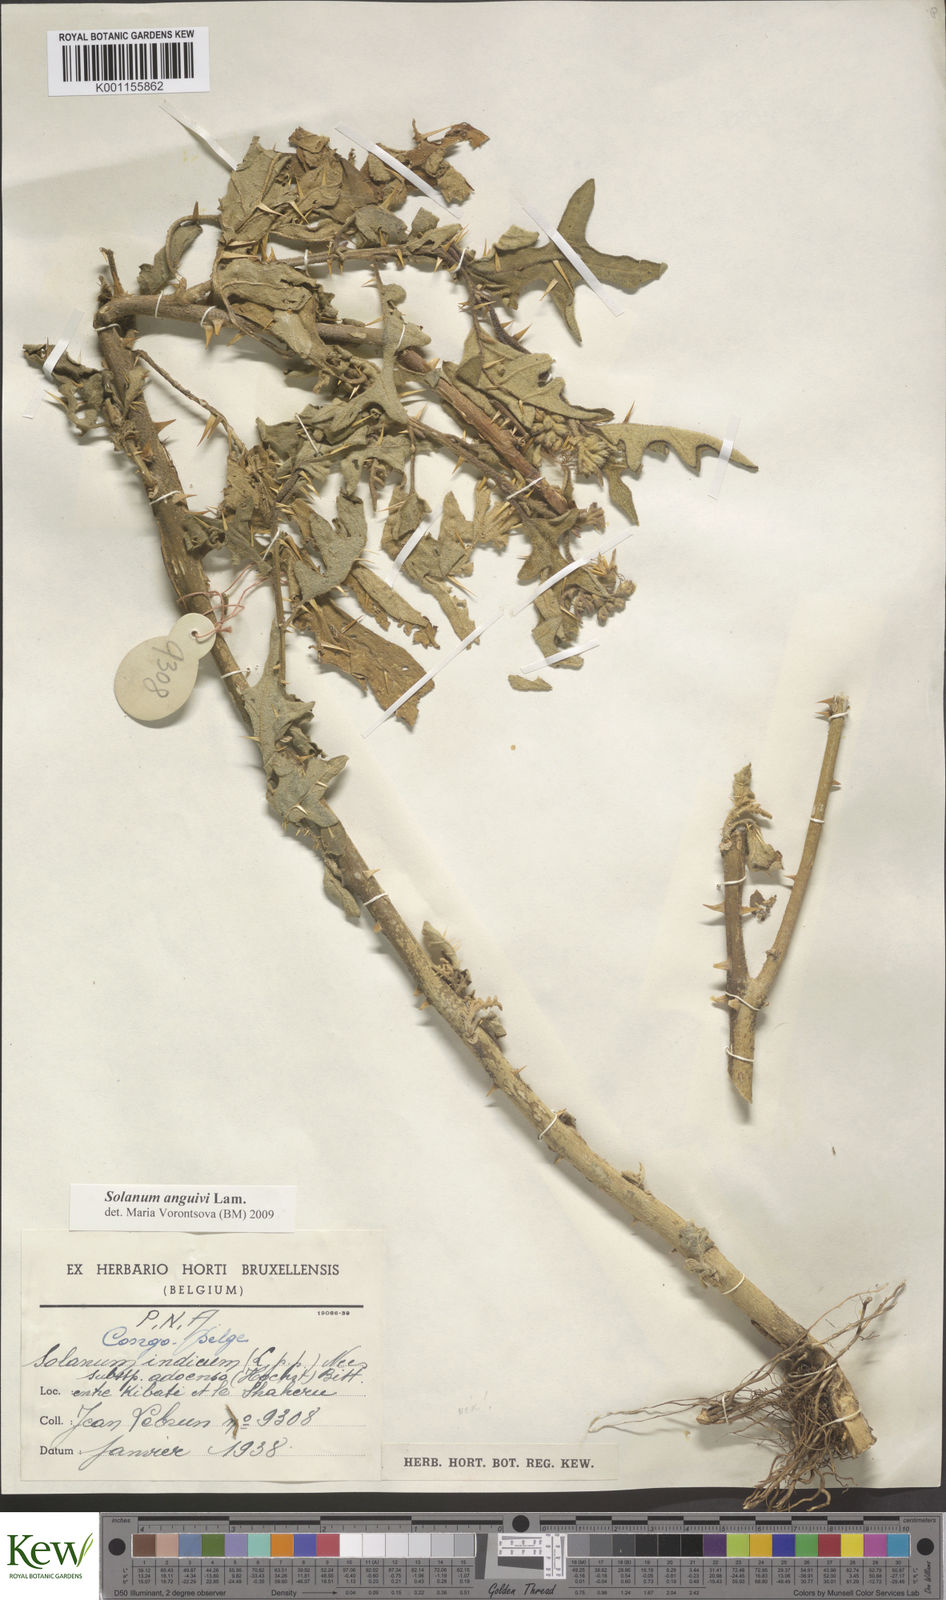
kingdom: Plantae
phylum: Tracheophyta
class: Magnoliopsida
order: Solanales
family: Solanaceae
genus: Solanum
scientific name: Solanum anguivi
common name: Forest bitterberry
